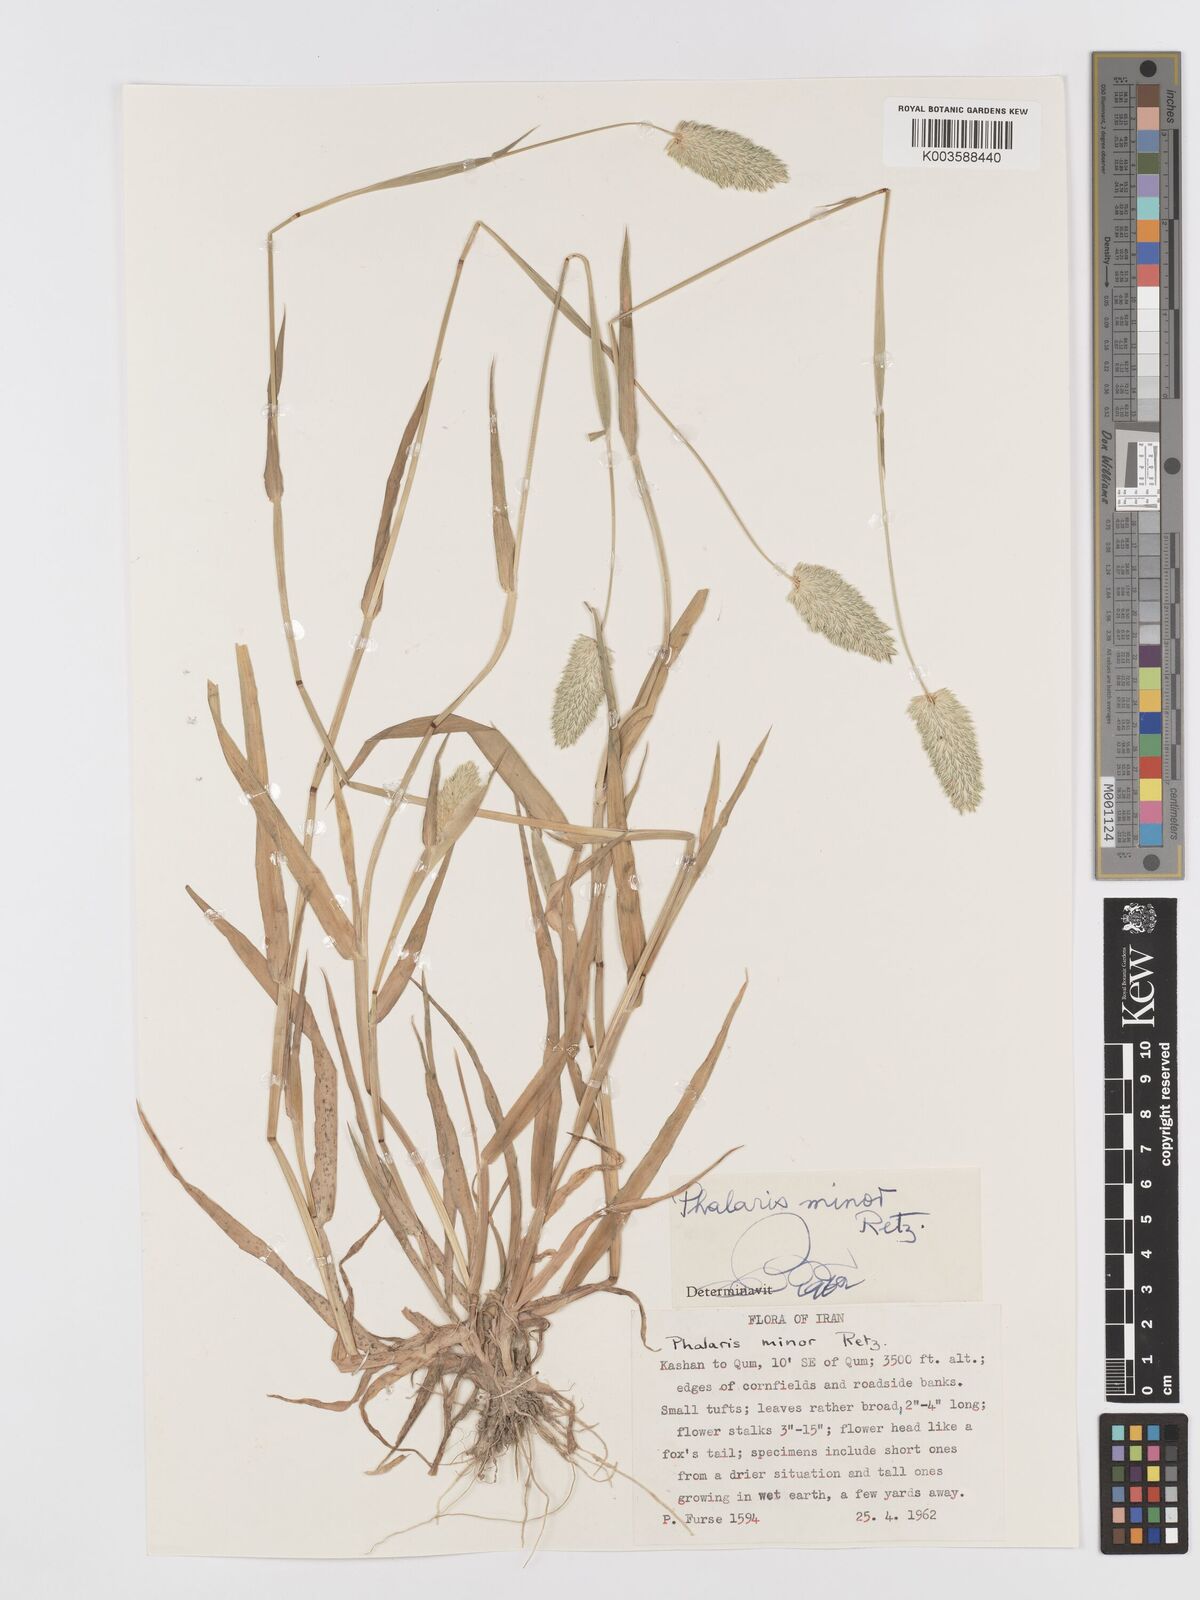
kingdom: Plantae
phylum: Tracheophyta
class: Liliopsida
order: Poales
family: Poaceae
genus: Phalaris
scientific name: Phalaris minor
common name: Littleseed canarygrass
